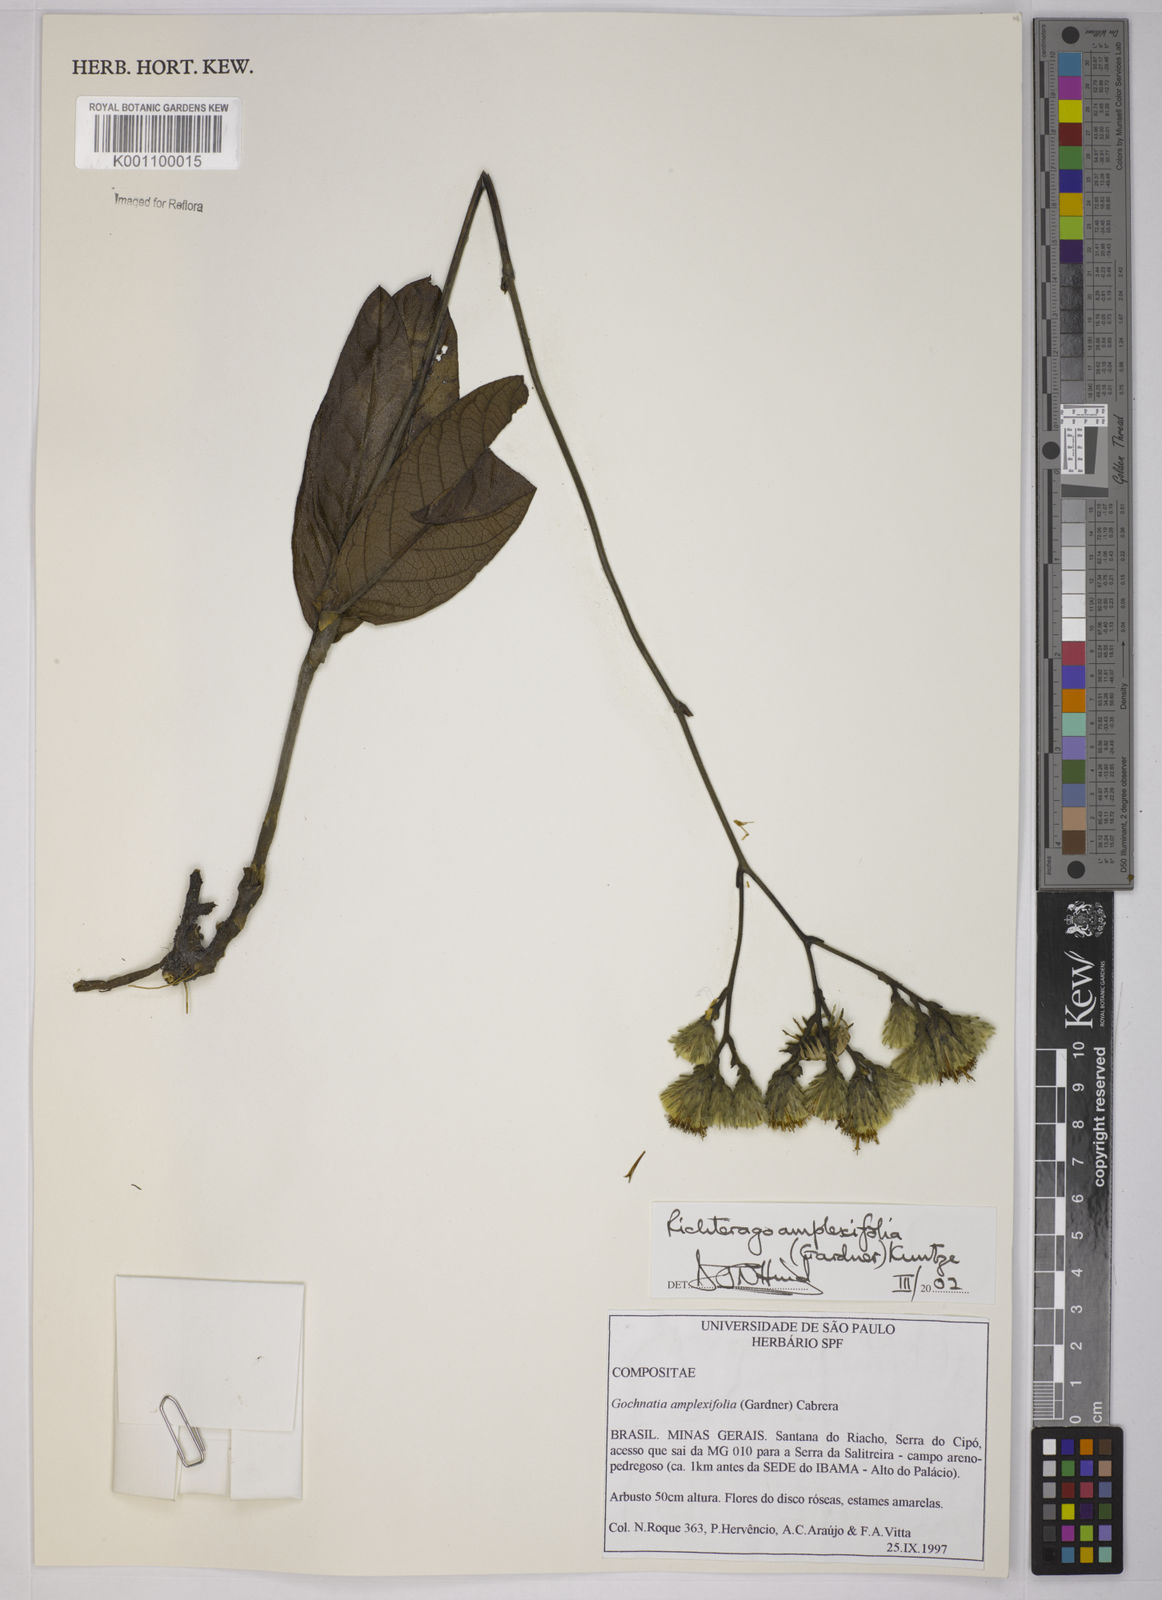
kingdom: Plantae
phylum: Tracheophyta
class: Magnoliopsida
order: Asterales
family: Asteraceae
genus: Richterago
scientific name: Richterago amplexifolia
